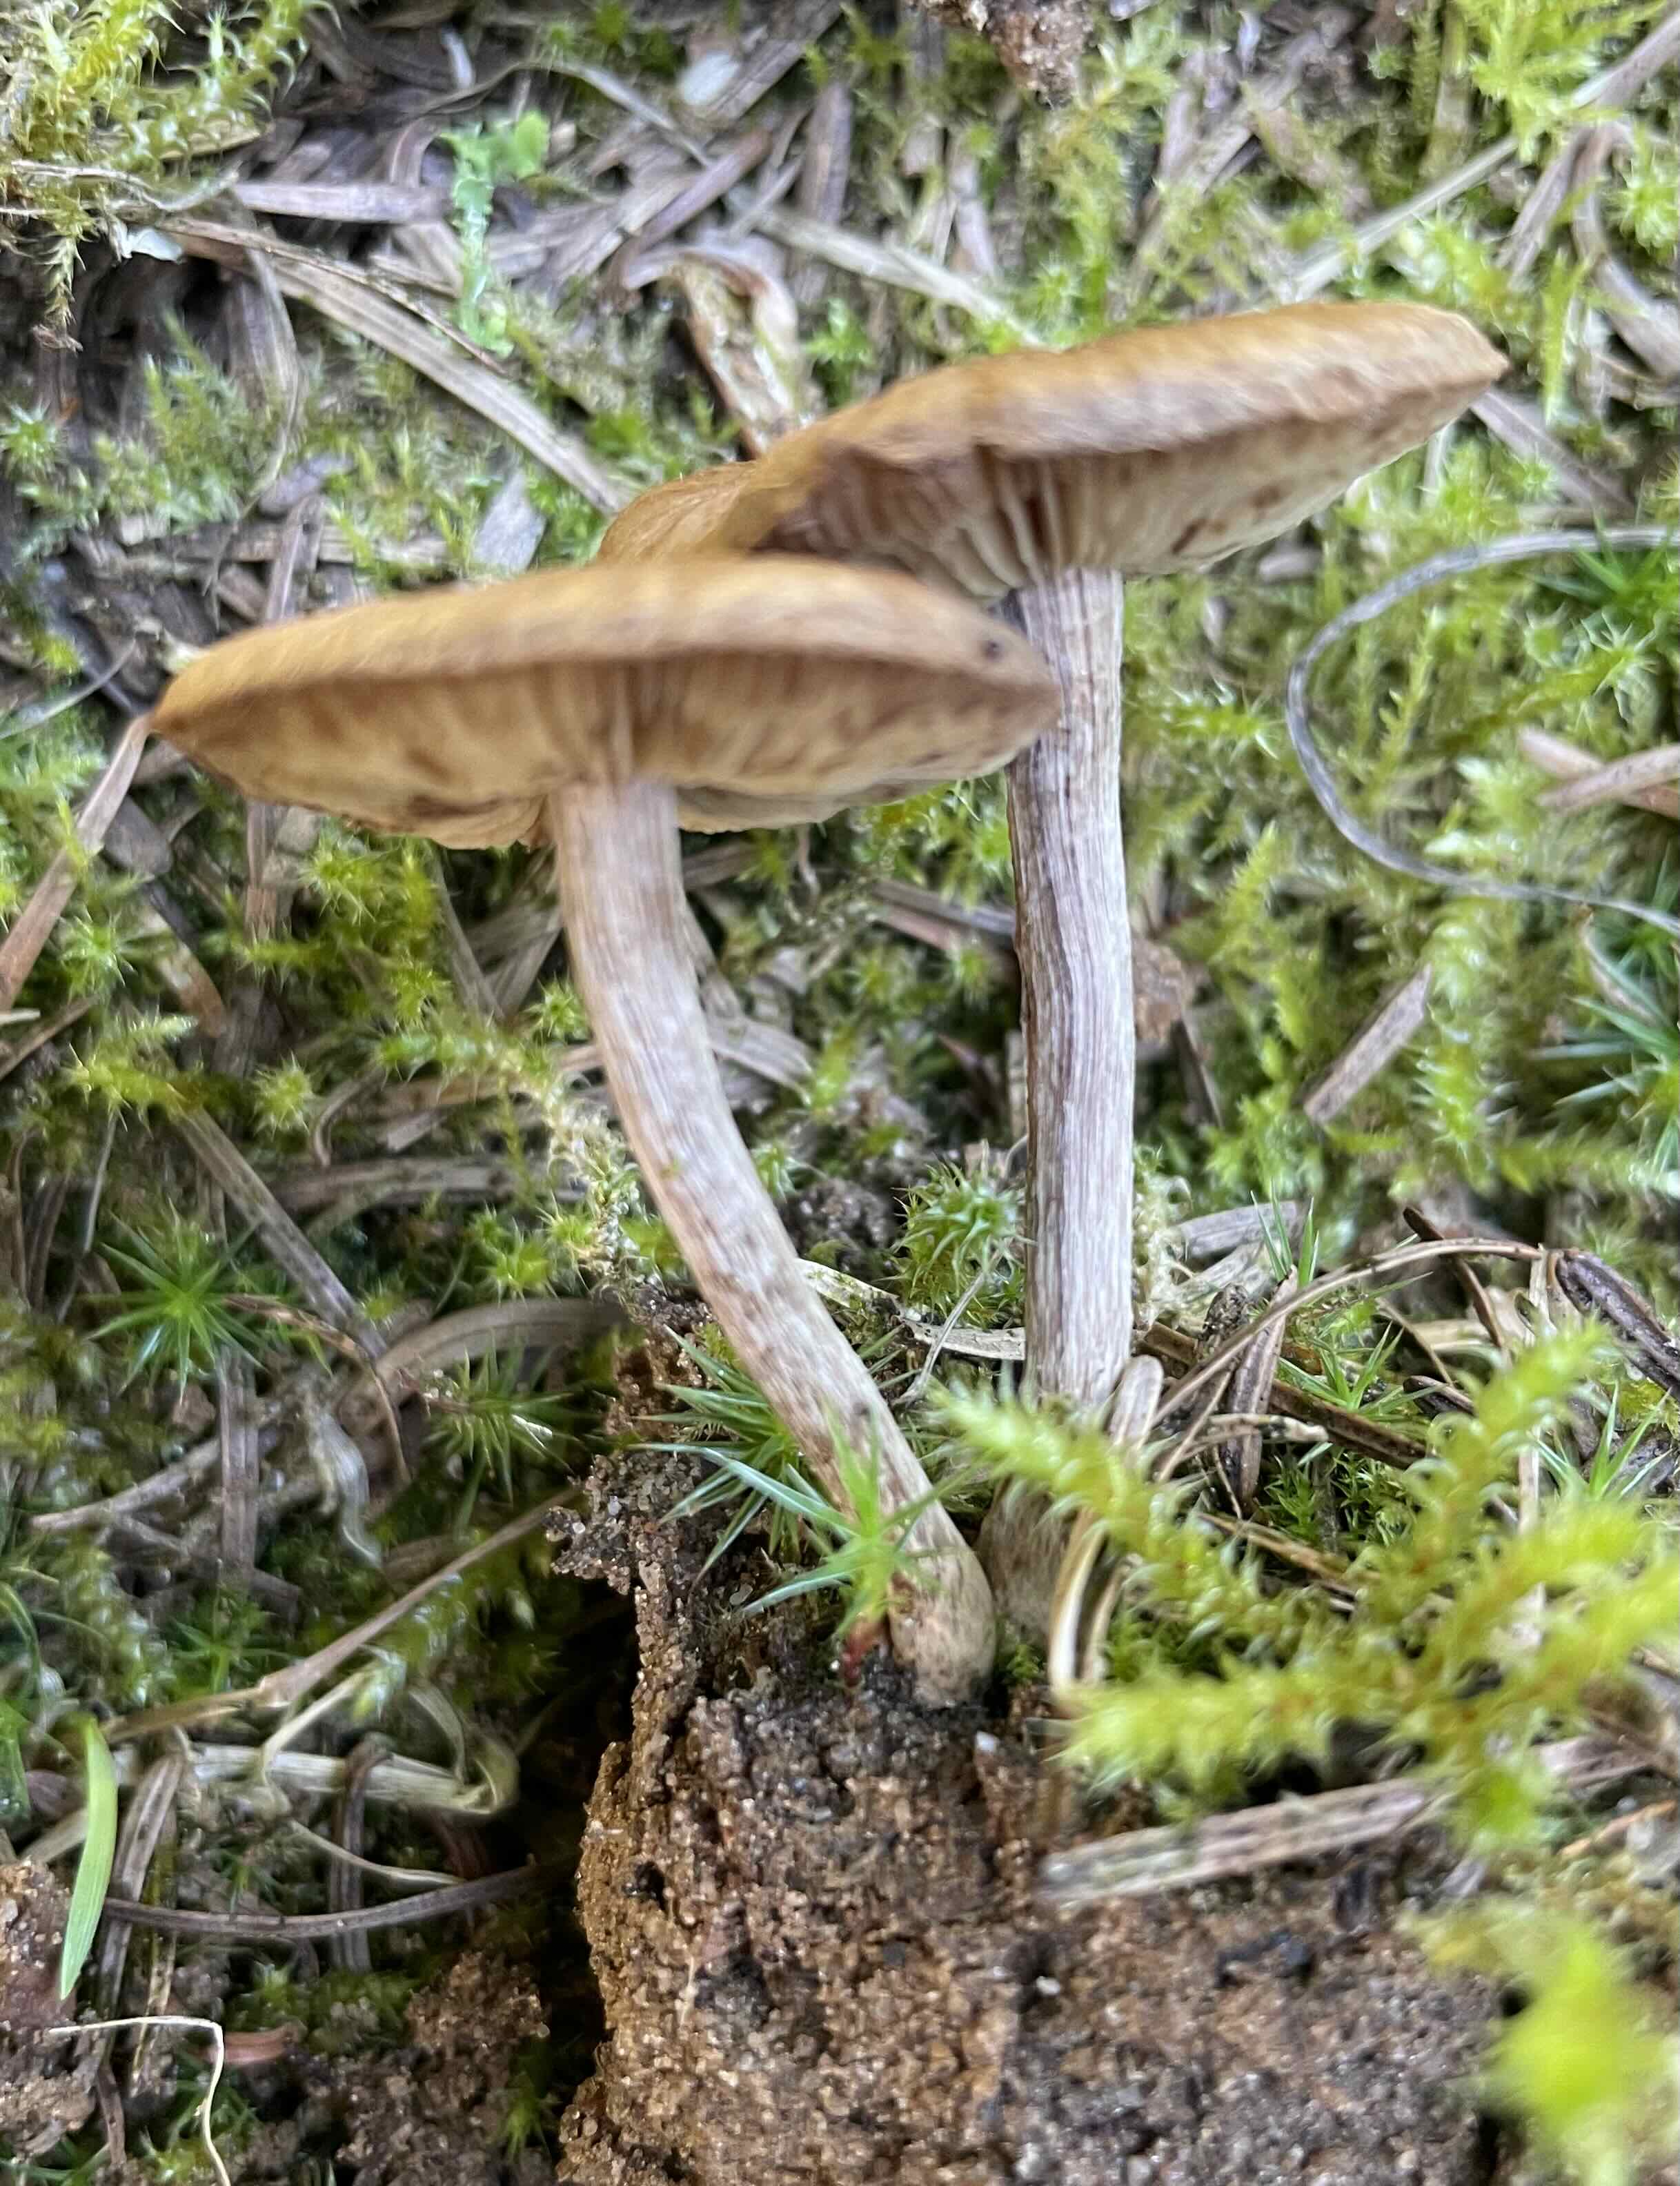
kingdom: Fungi
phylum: Basidiomycota
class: Agaricomycetes
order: Agaricales
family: Inocybaceae
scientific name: Inocybaceae
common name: trævlhatfamilien
